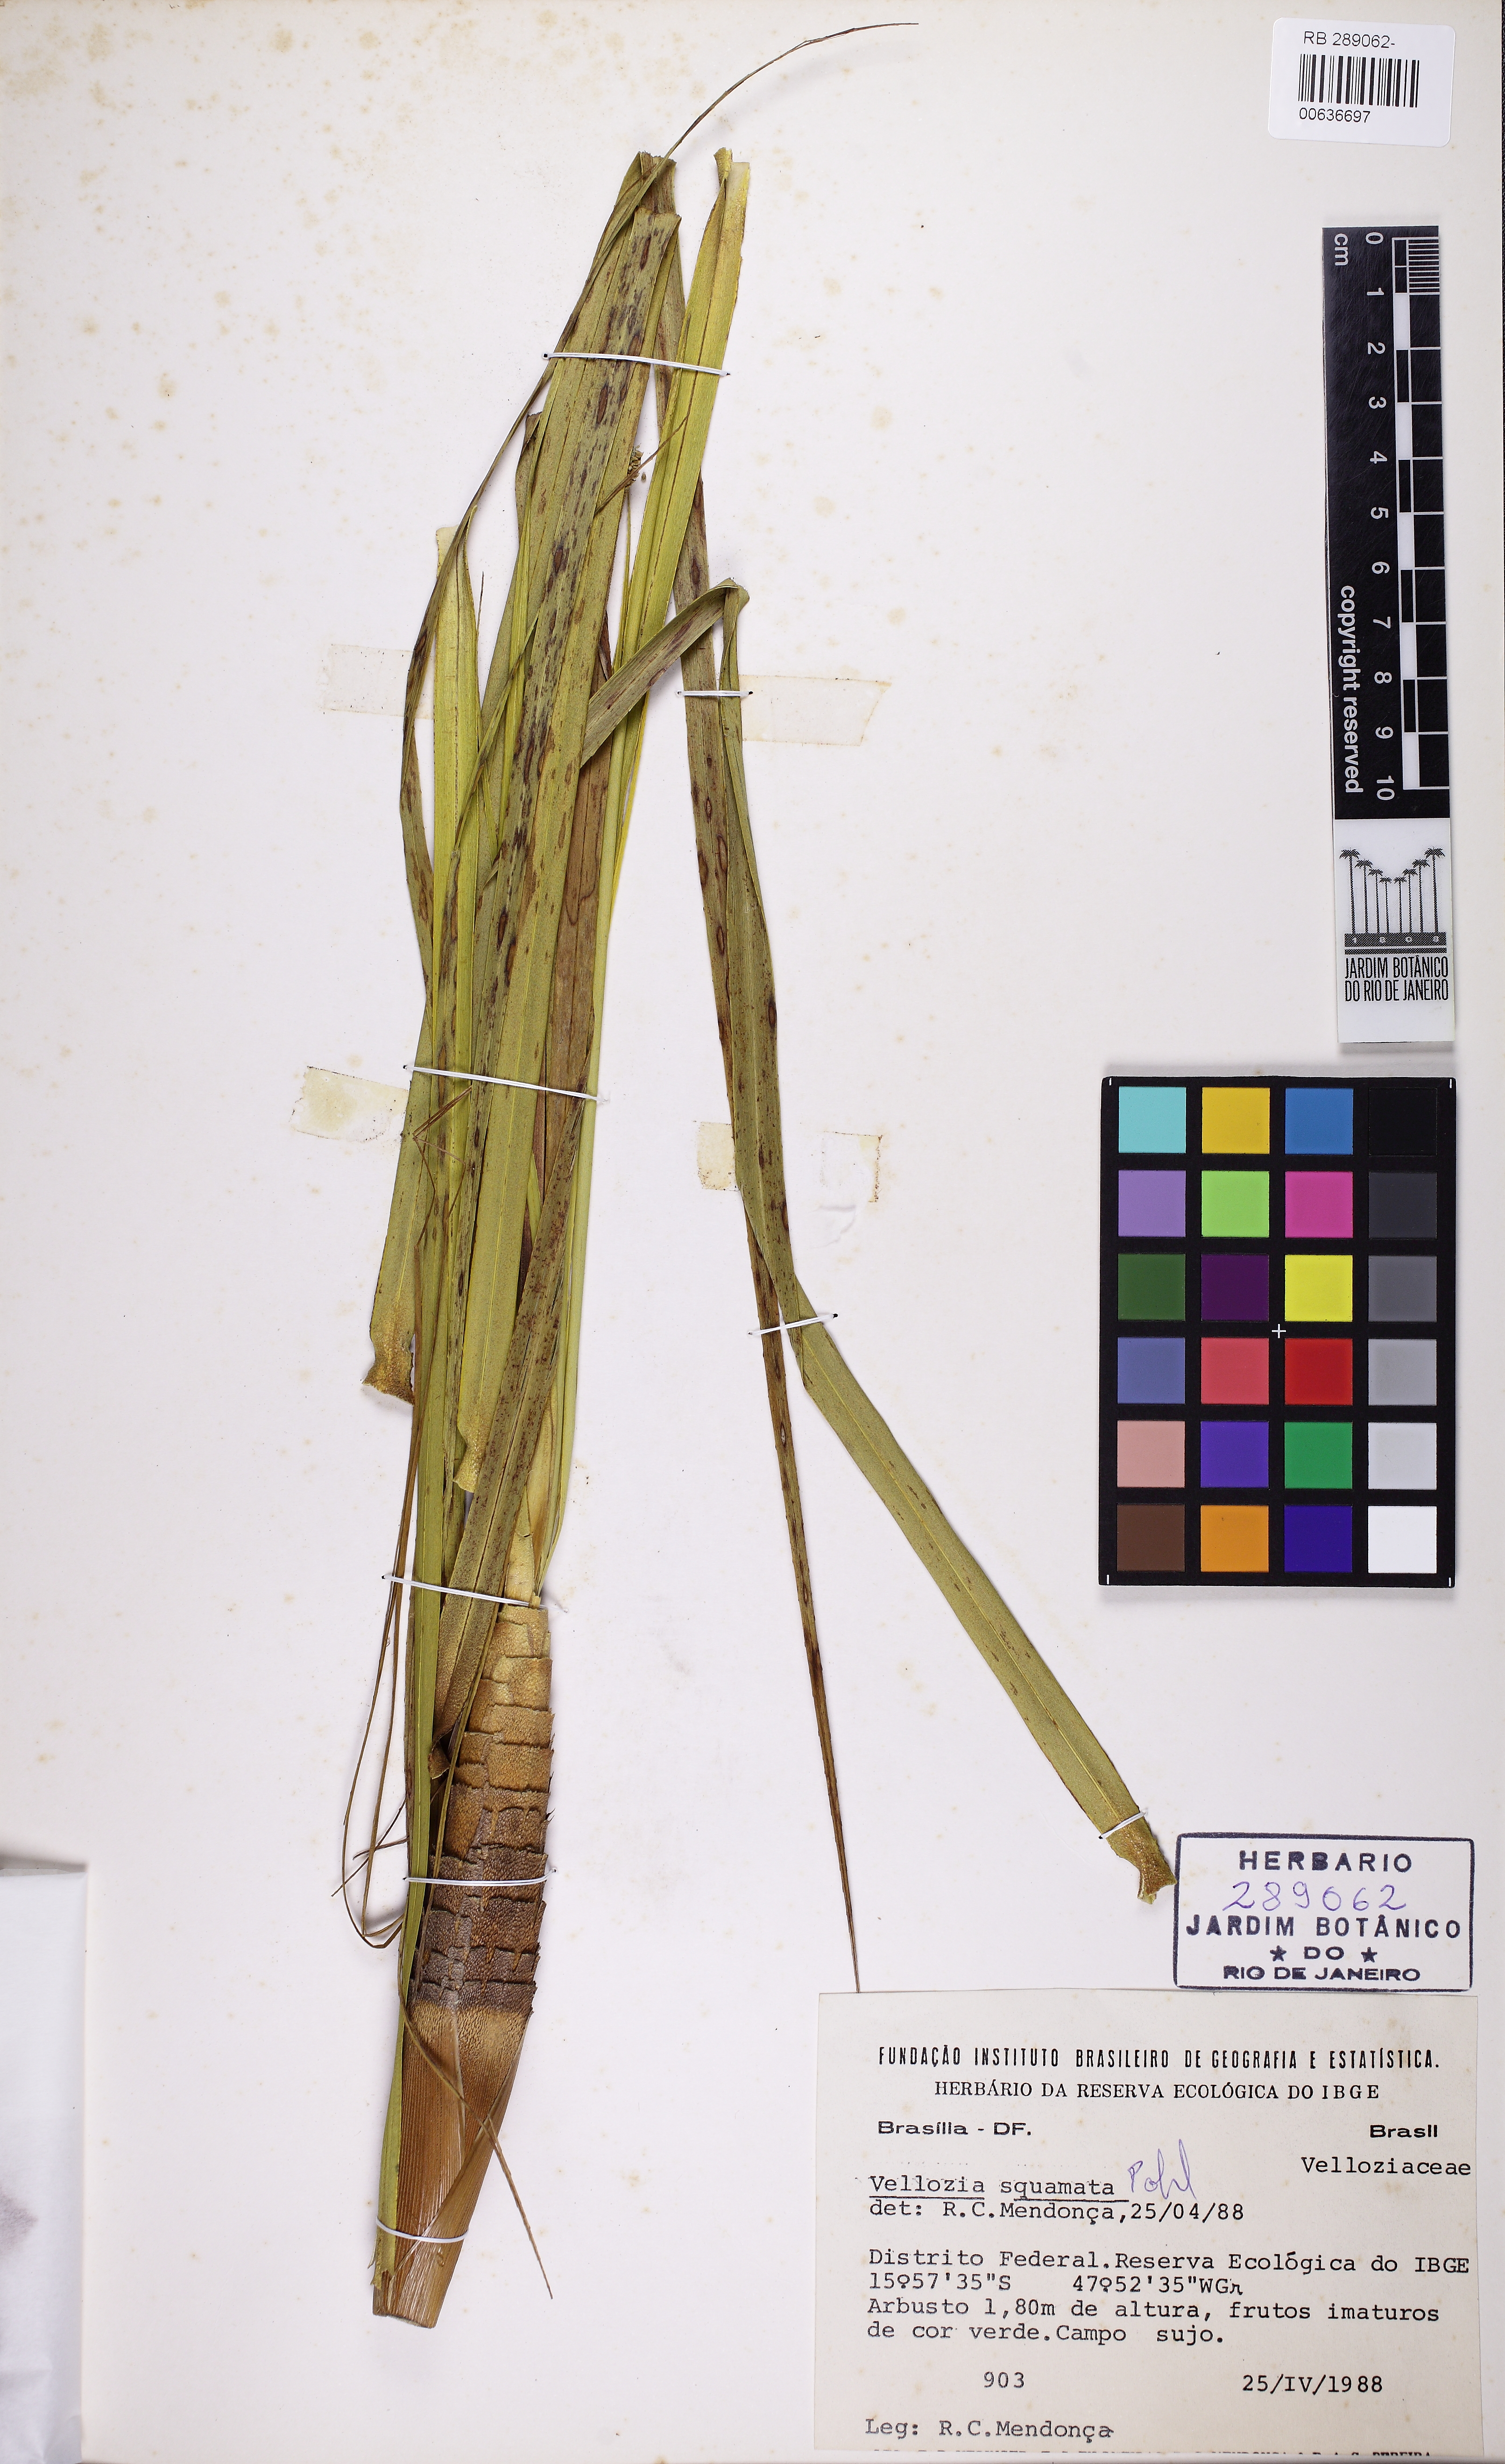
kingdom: Plantae
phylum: Tracheophyta
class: Liliopsida
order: Pandanales
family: Velloziaceae
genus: Vellozia
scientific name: Vellozia squamata
